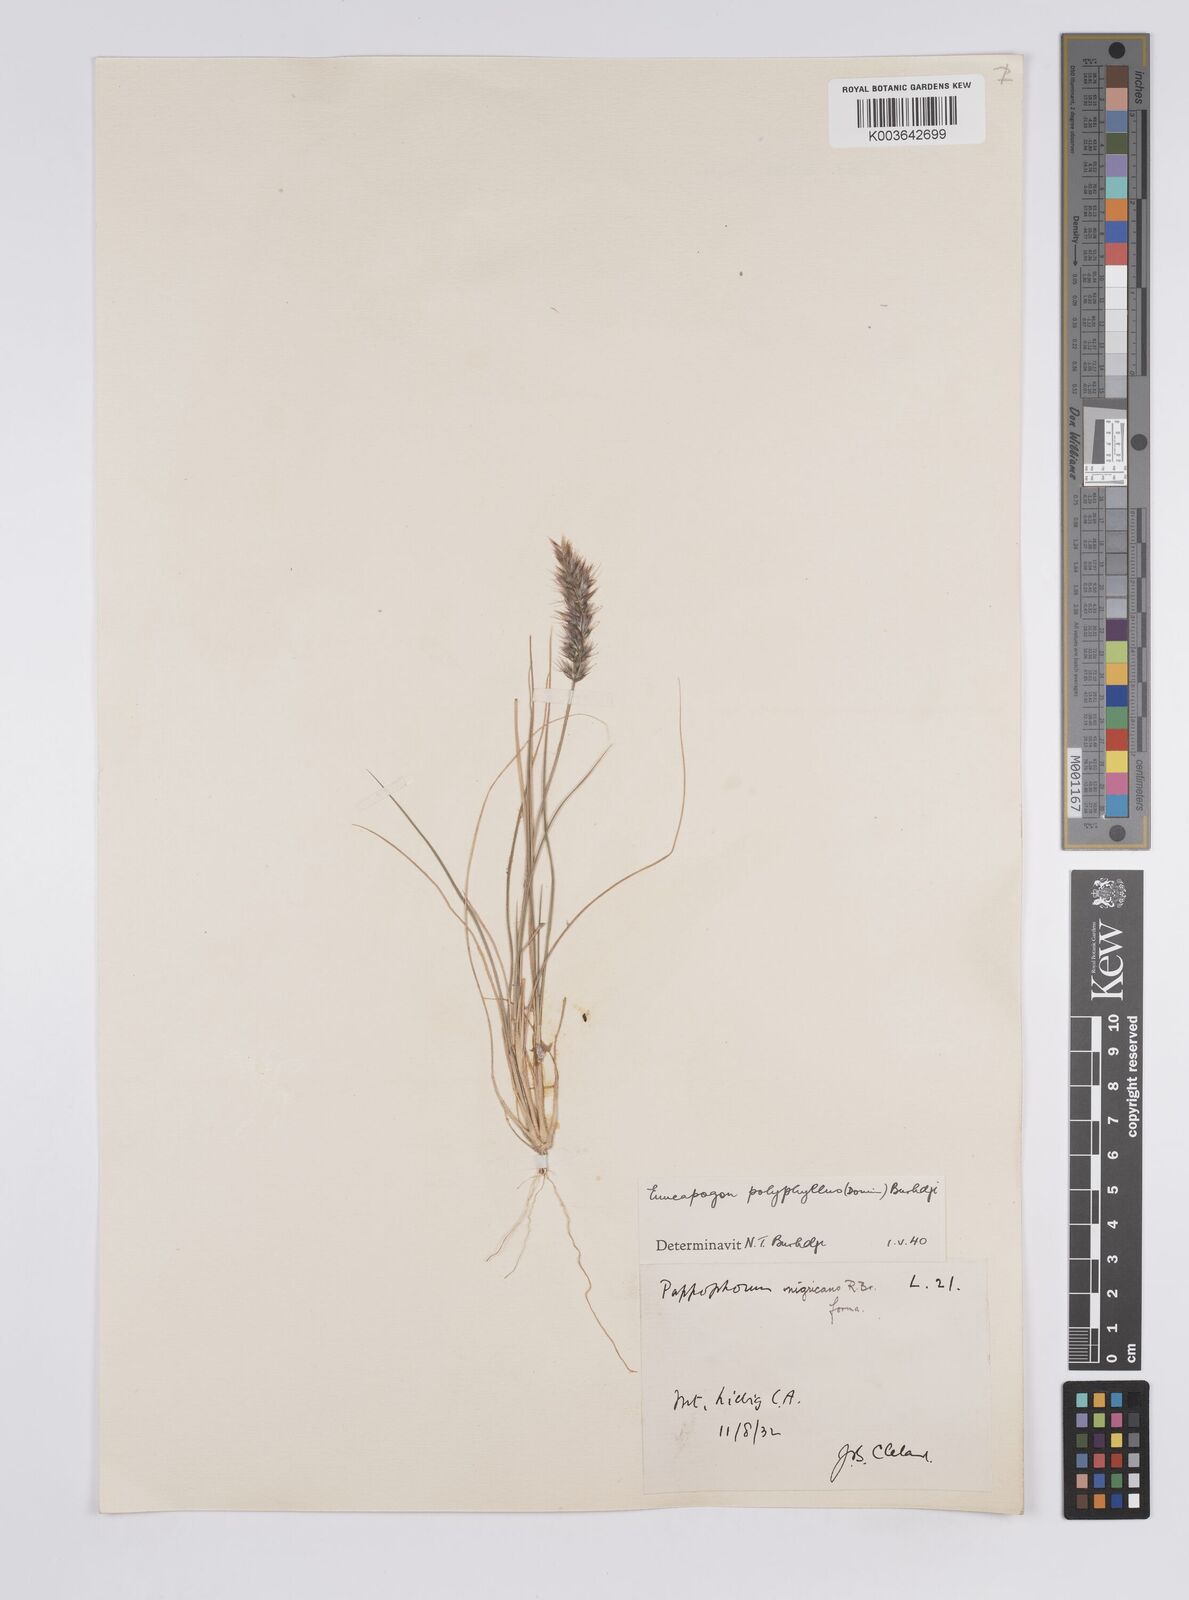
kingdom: Plantae
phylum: Tracheophyta
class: Liliopsida
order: Poales
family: Poaceae
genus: Enneapogon
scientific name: Enneapogon polyphyllus
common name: Leafy nineawn
